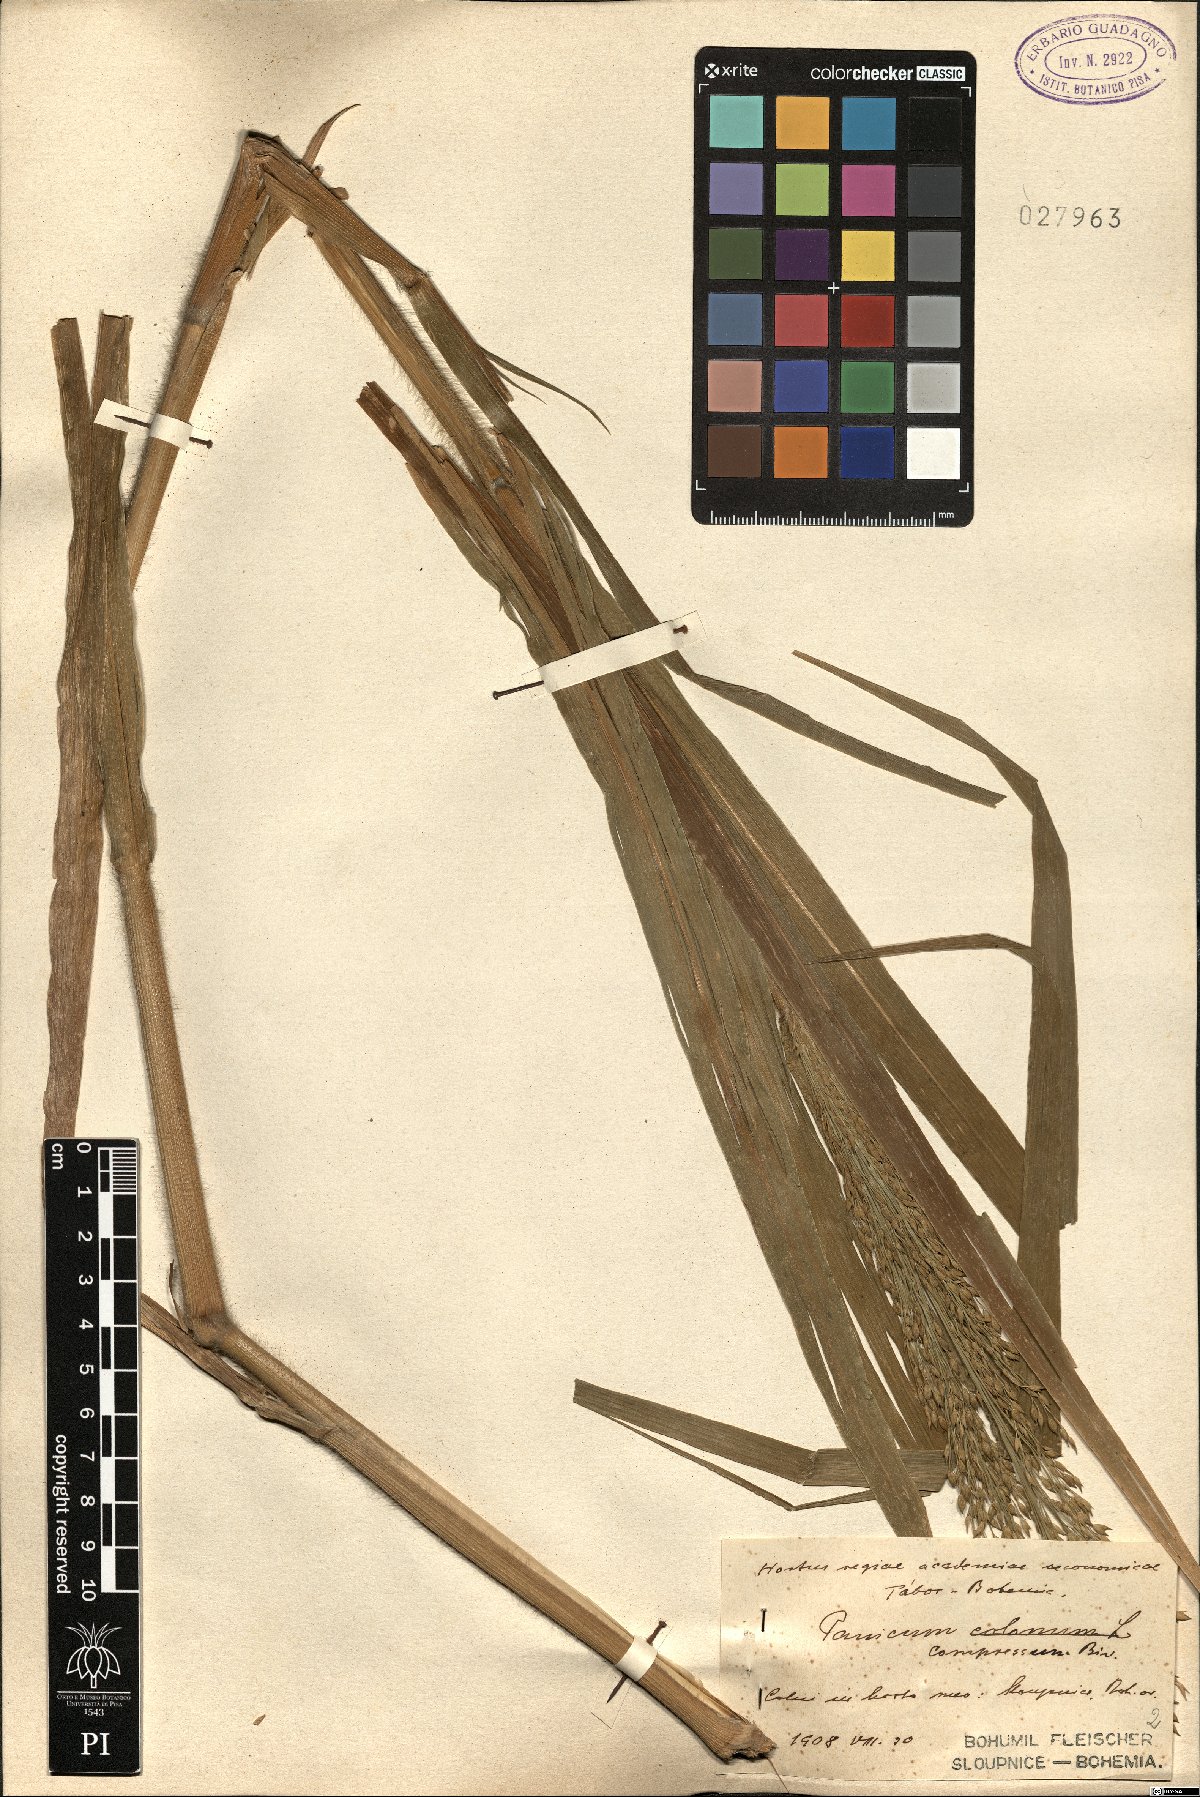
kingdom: Plantae
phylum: Tracheophyta
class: Liliopsida
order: Poales
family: Poaceae
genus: Megathyrsus
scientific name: Megathyrsus maximus
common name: Guineagrass
